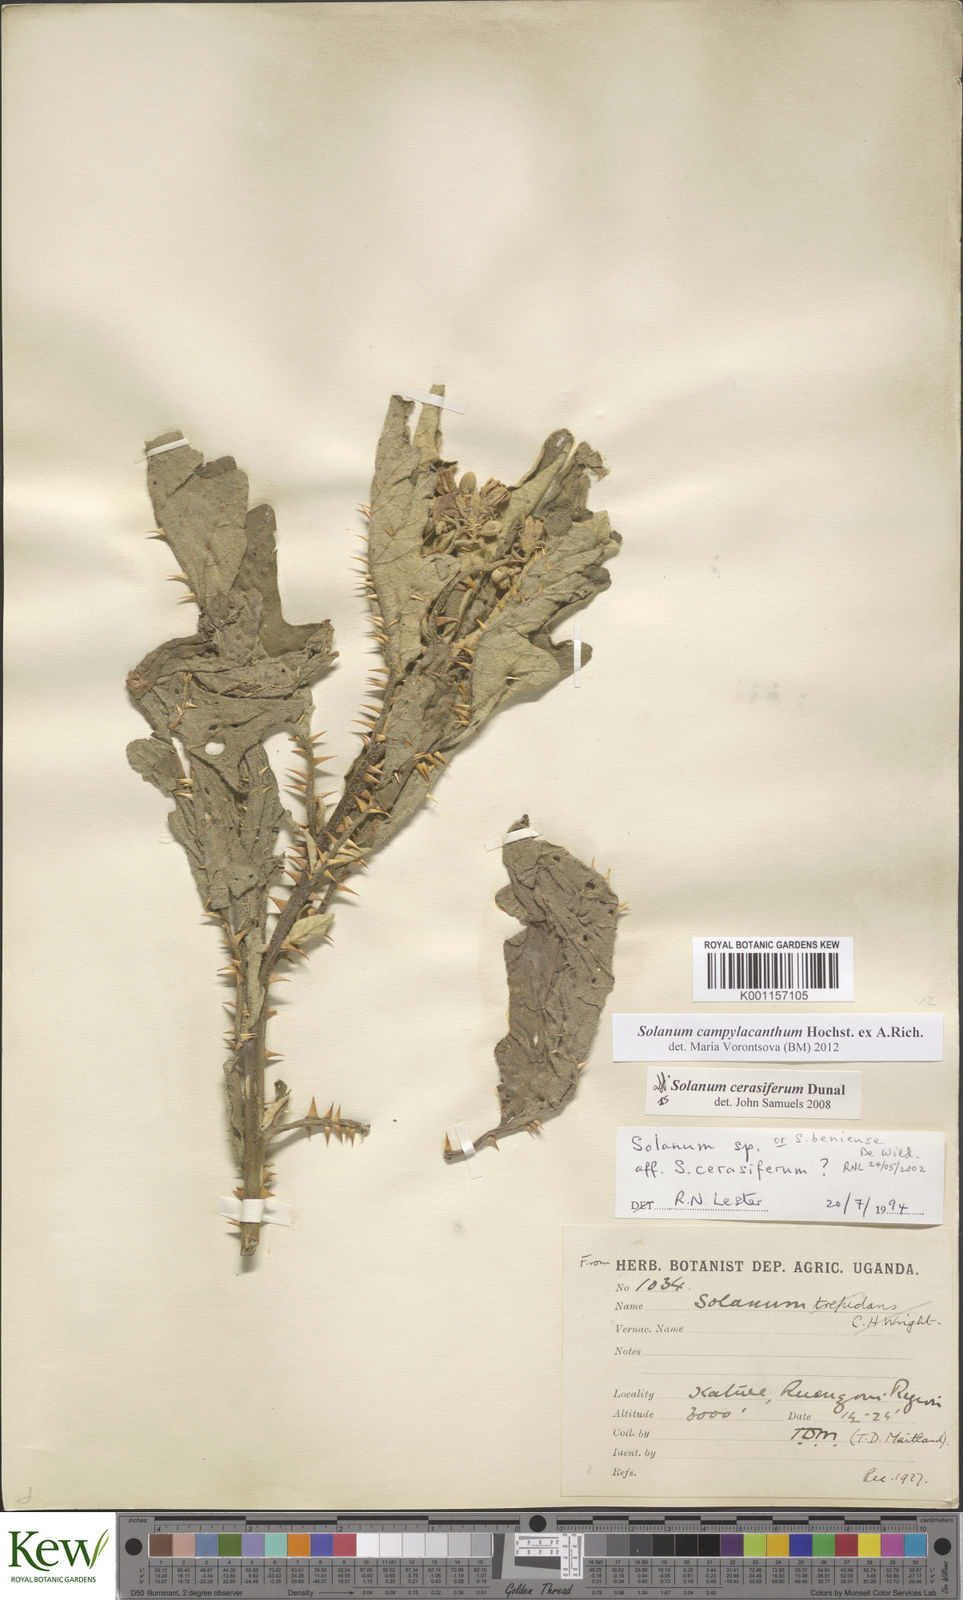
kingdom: Plantae
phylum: Tracheophyta
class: Magnoliopsida
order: Solanales
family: Solanaceae
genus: Solanum
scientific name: Solanum campylacanthum
